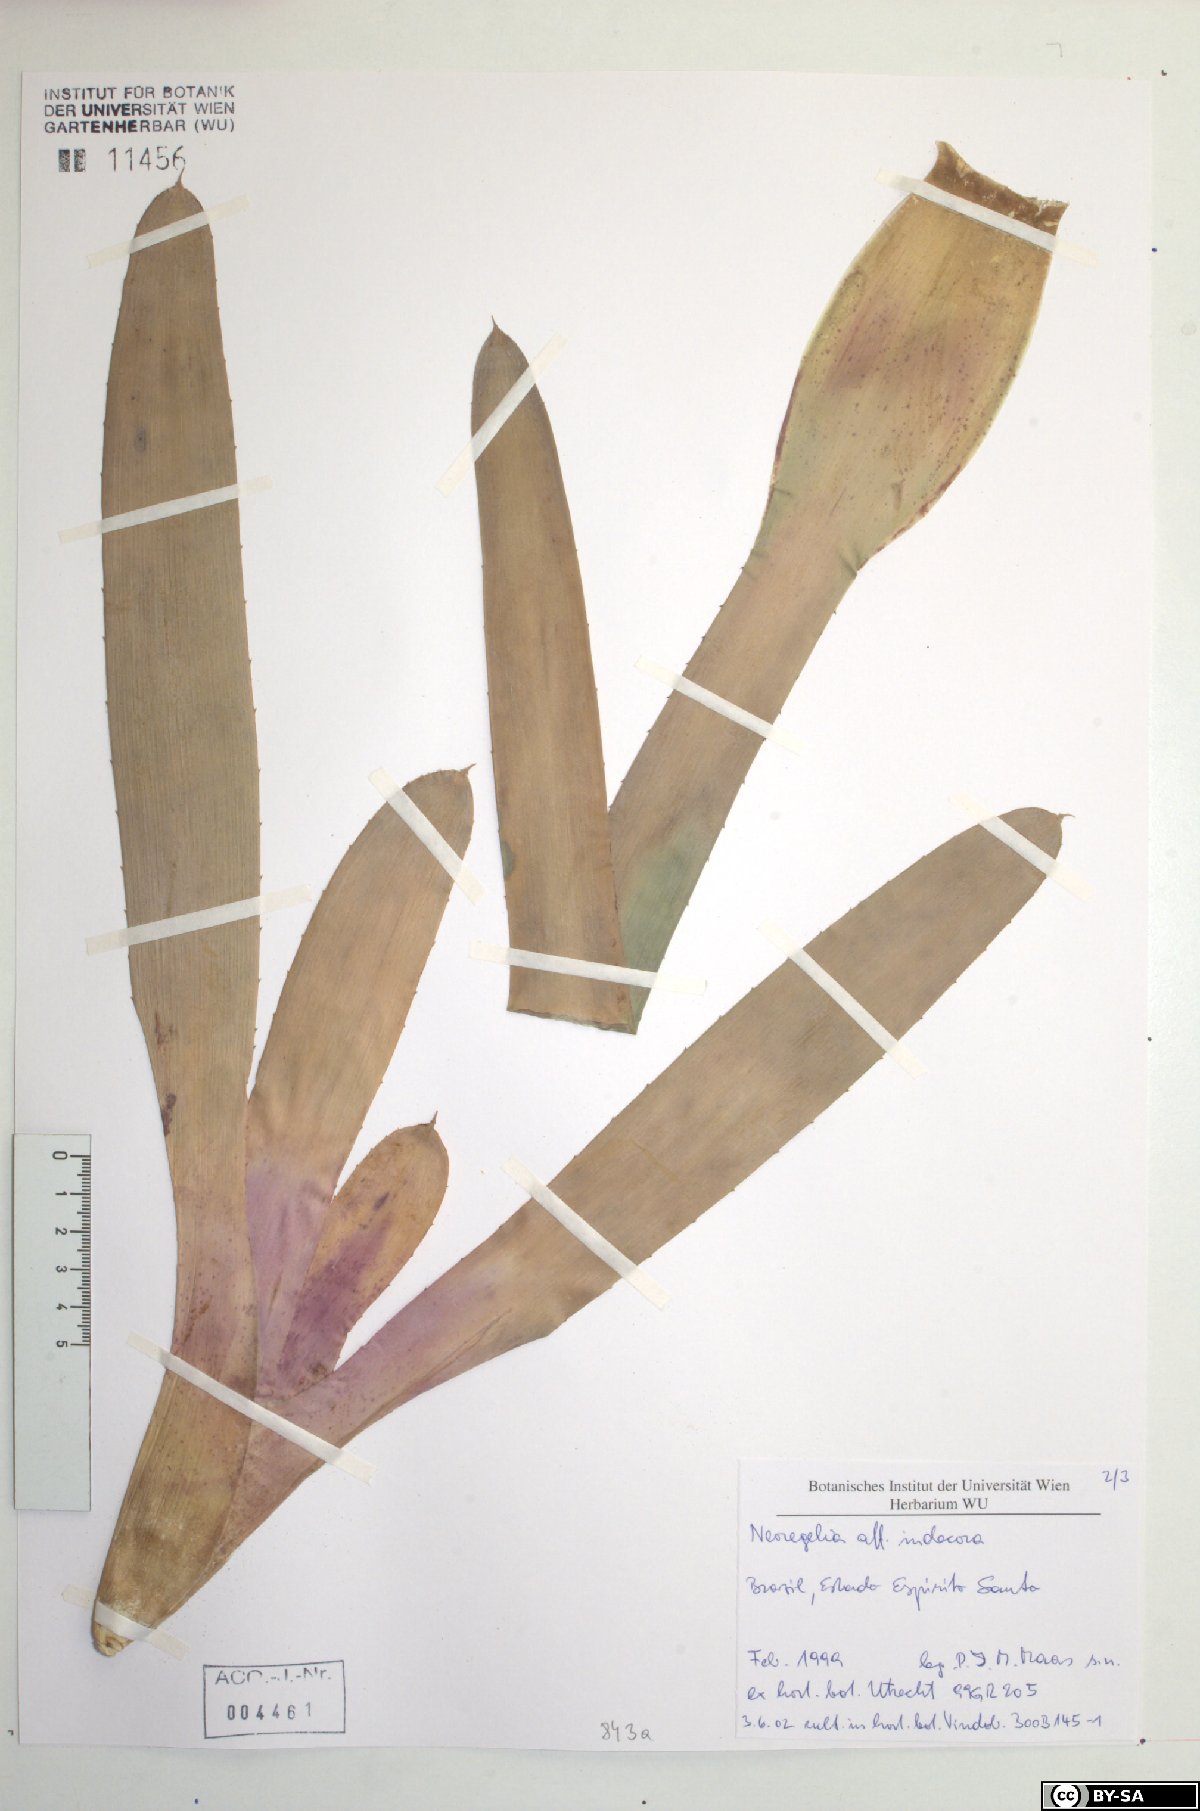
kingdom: Plantae
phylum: Tracheophyta
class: Liliopsida
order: Poales
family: Bromeliaceae
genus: Neoregelia
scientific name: Neoregelia indecora
